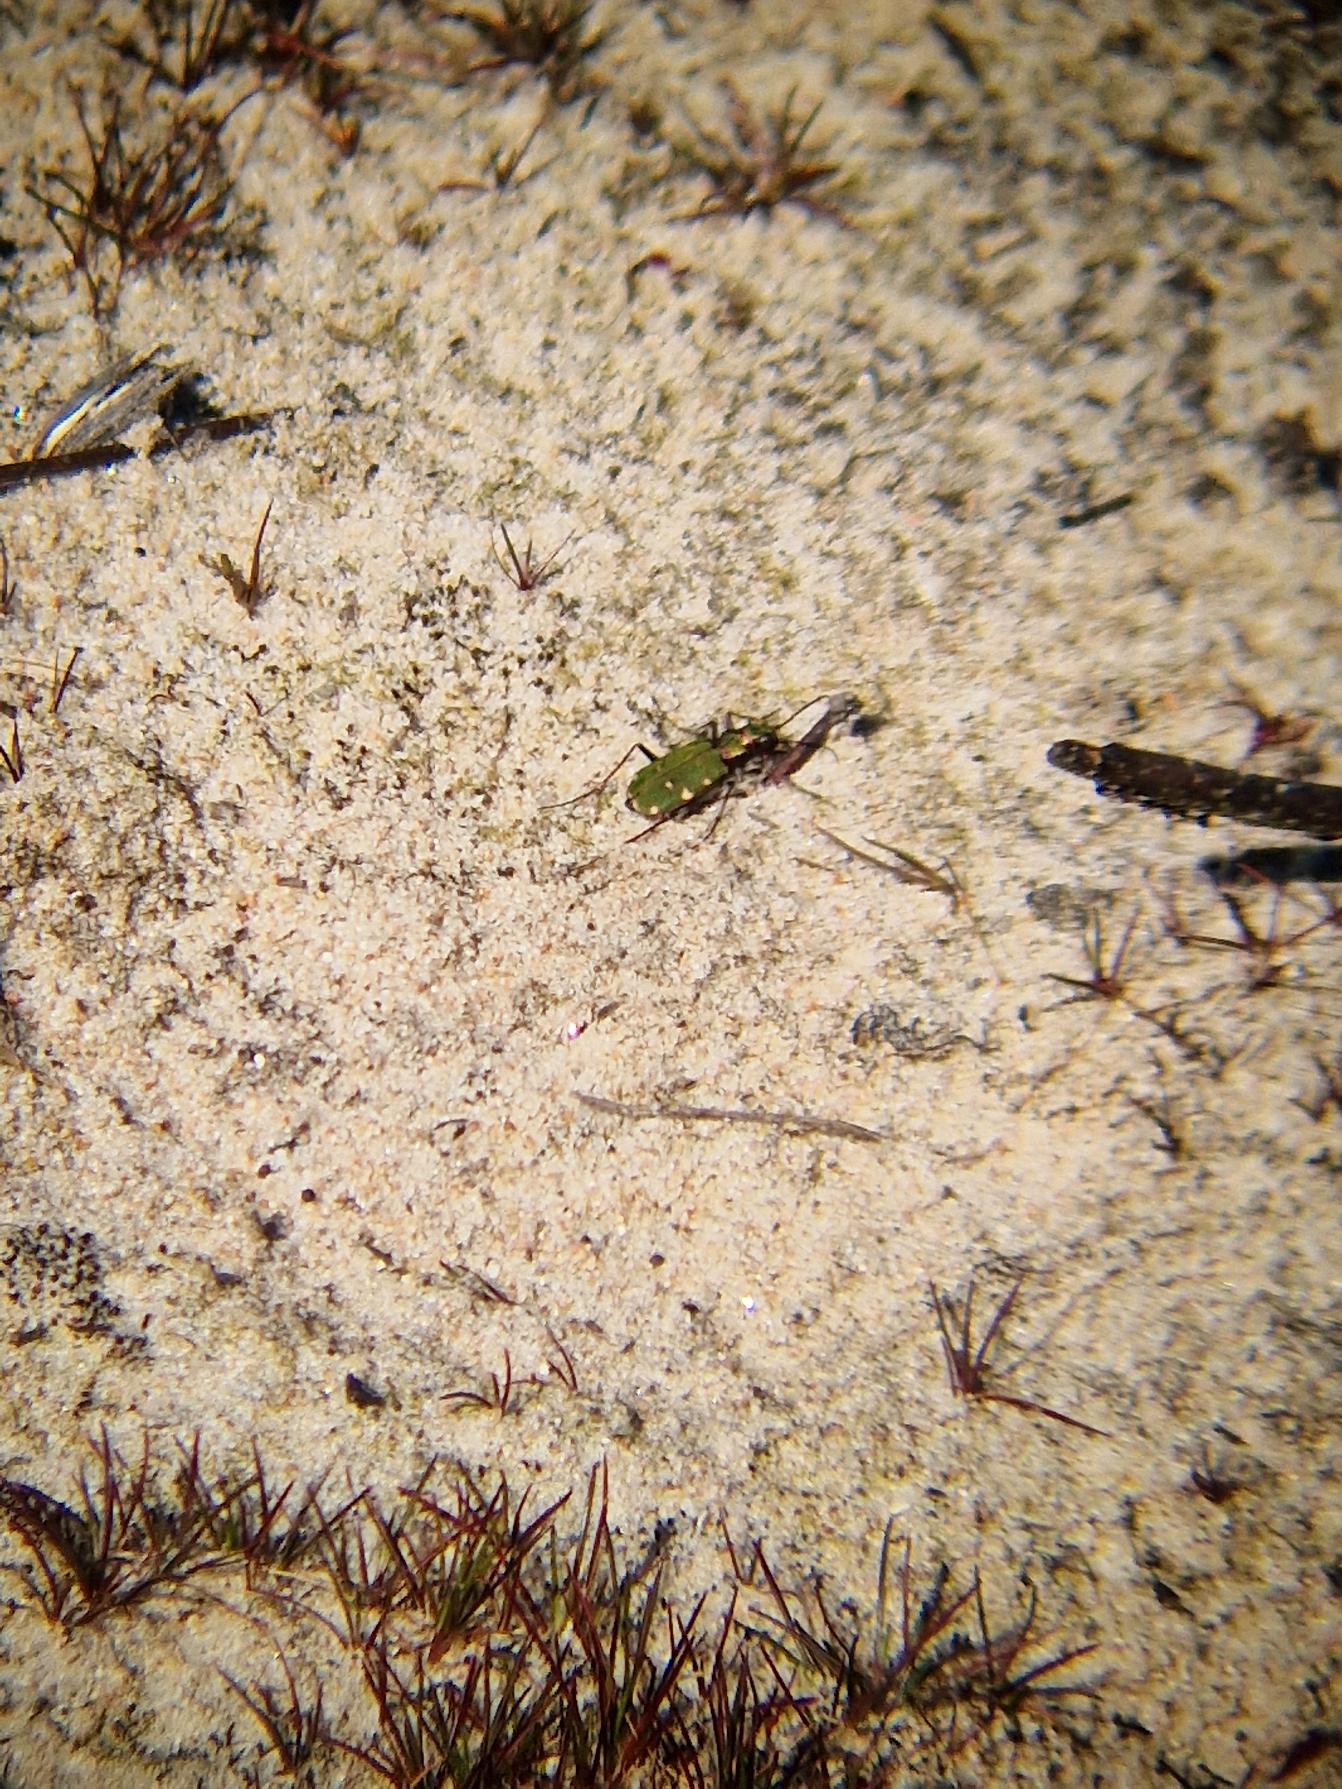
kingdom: Animalia
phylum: Arthropoda
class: Insecta
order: Coleoptera
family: Carabidae
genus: Cicindela
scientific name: Cicindela campestris
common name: Grøn sandspringer
